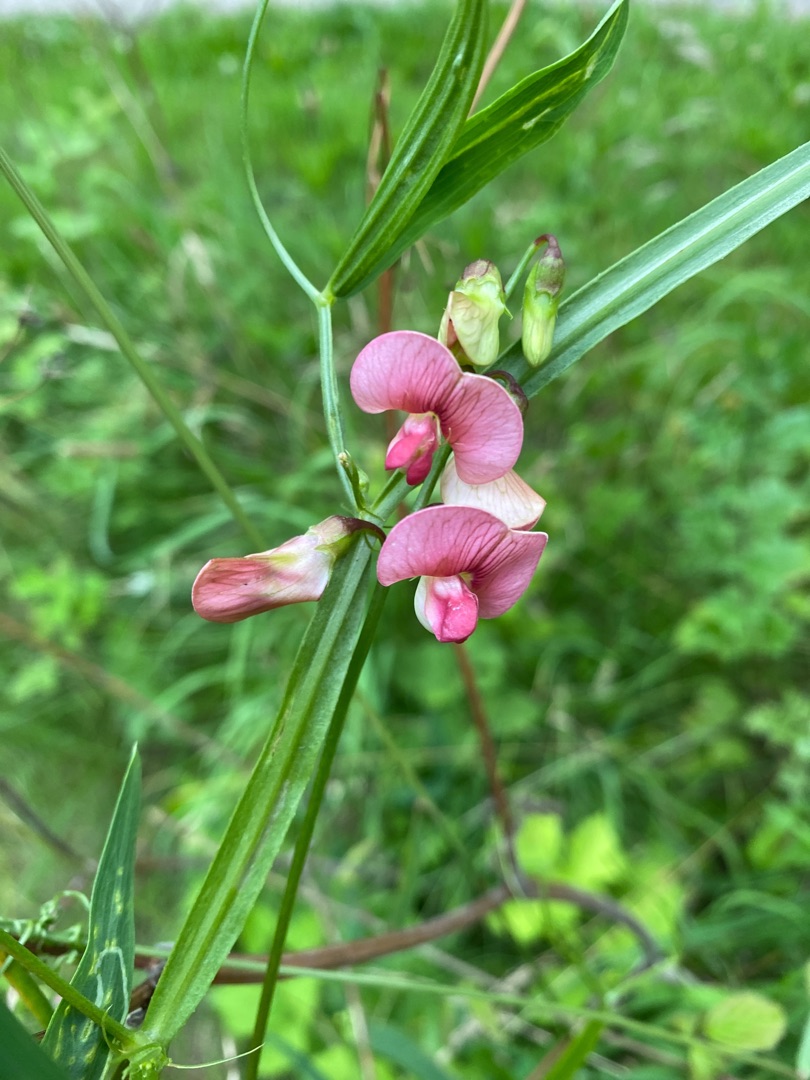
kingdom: Plantae
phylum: Tracheophyta
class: Magnoliopsida
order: Fabales
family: Fabaceae
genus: Lathyrus
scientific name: Lathyrus sylvestris
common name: Skov-fladbælg
